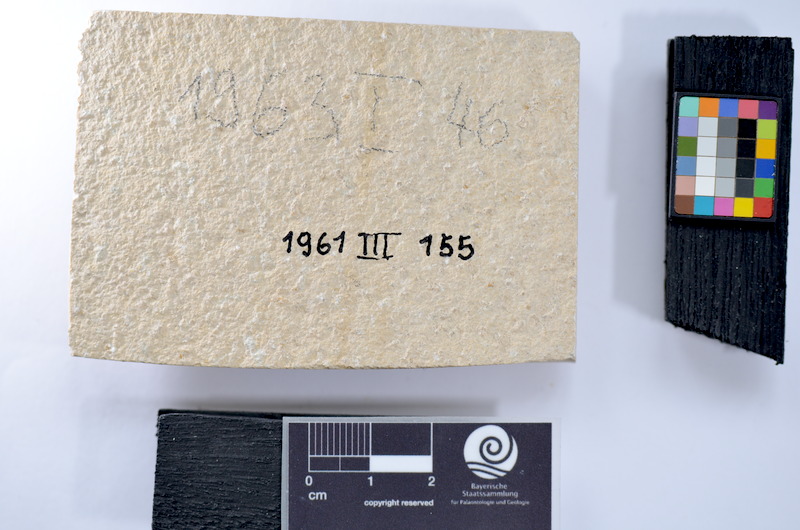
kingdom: Animalia
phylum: Chordata
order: Salmoniformes
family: Orthogonikleithridae
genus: Leptolepides
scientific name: Leptolepides
